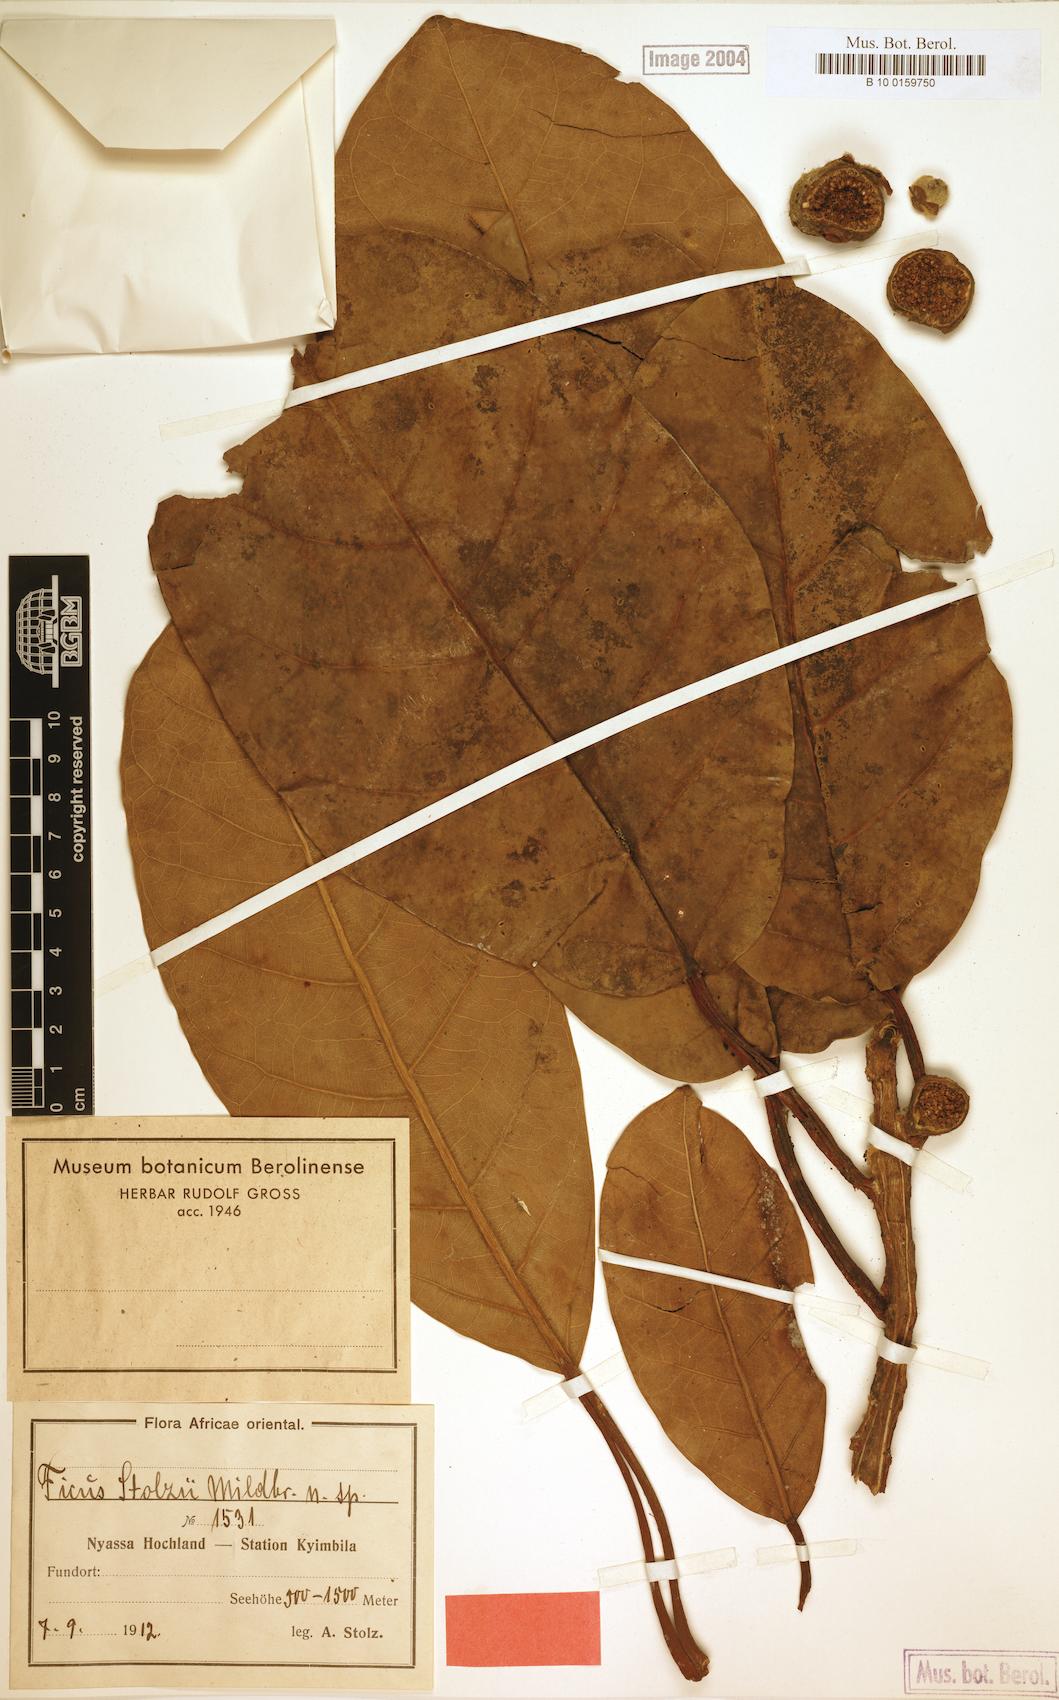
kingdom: Plantae
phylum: Tracheophyta
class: Magnoliopsida
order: Rosales
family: Moraceae
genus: Ficus
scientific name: Ficus lutea
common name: Giant-leaved fig
